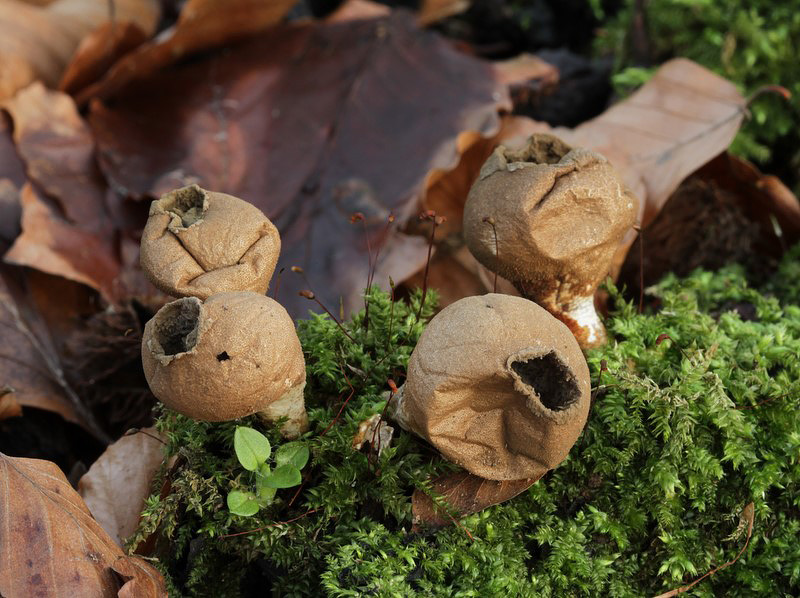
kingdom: Fungi
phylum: Basidiomycota
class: Agaricomycetes
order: Agaricales
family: Lycoperdaceae
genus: Apioperdon
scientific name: Apioperdon pyriforme
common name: pære-støvbold
